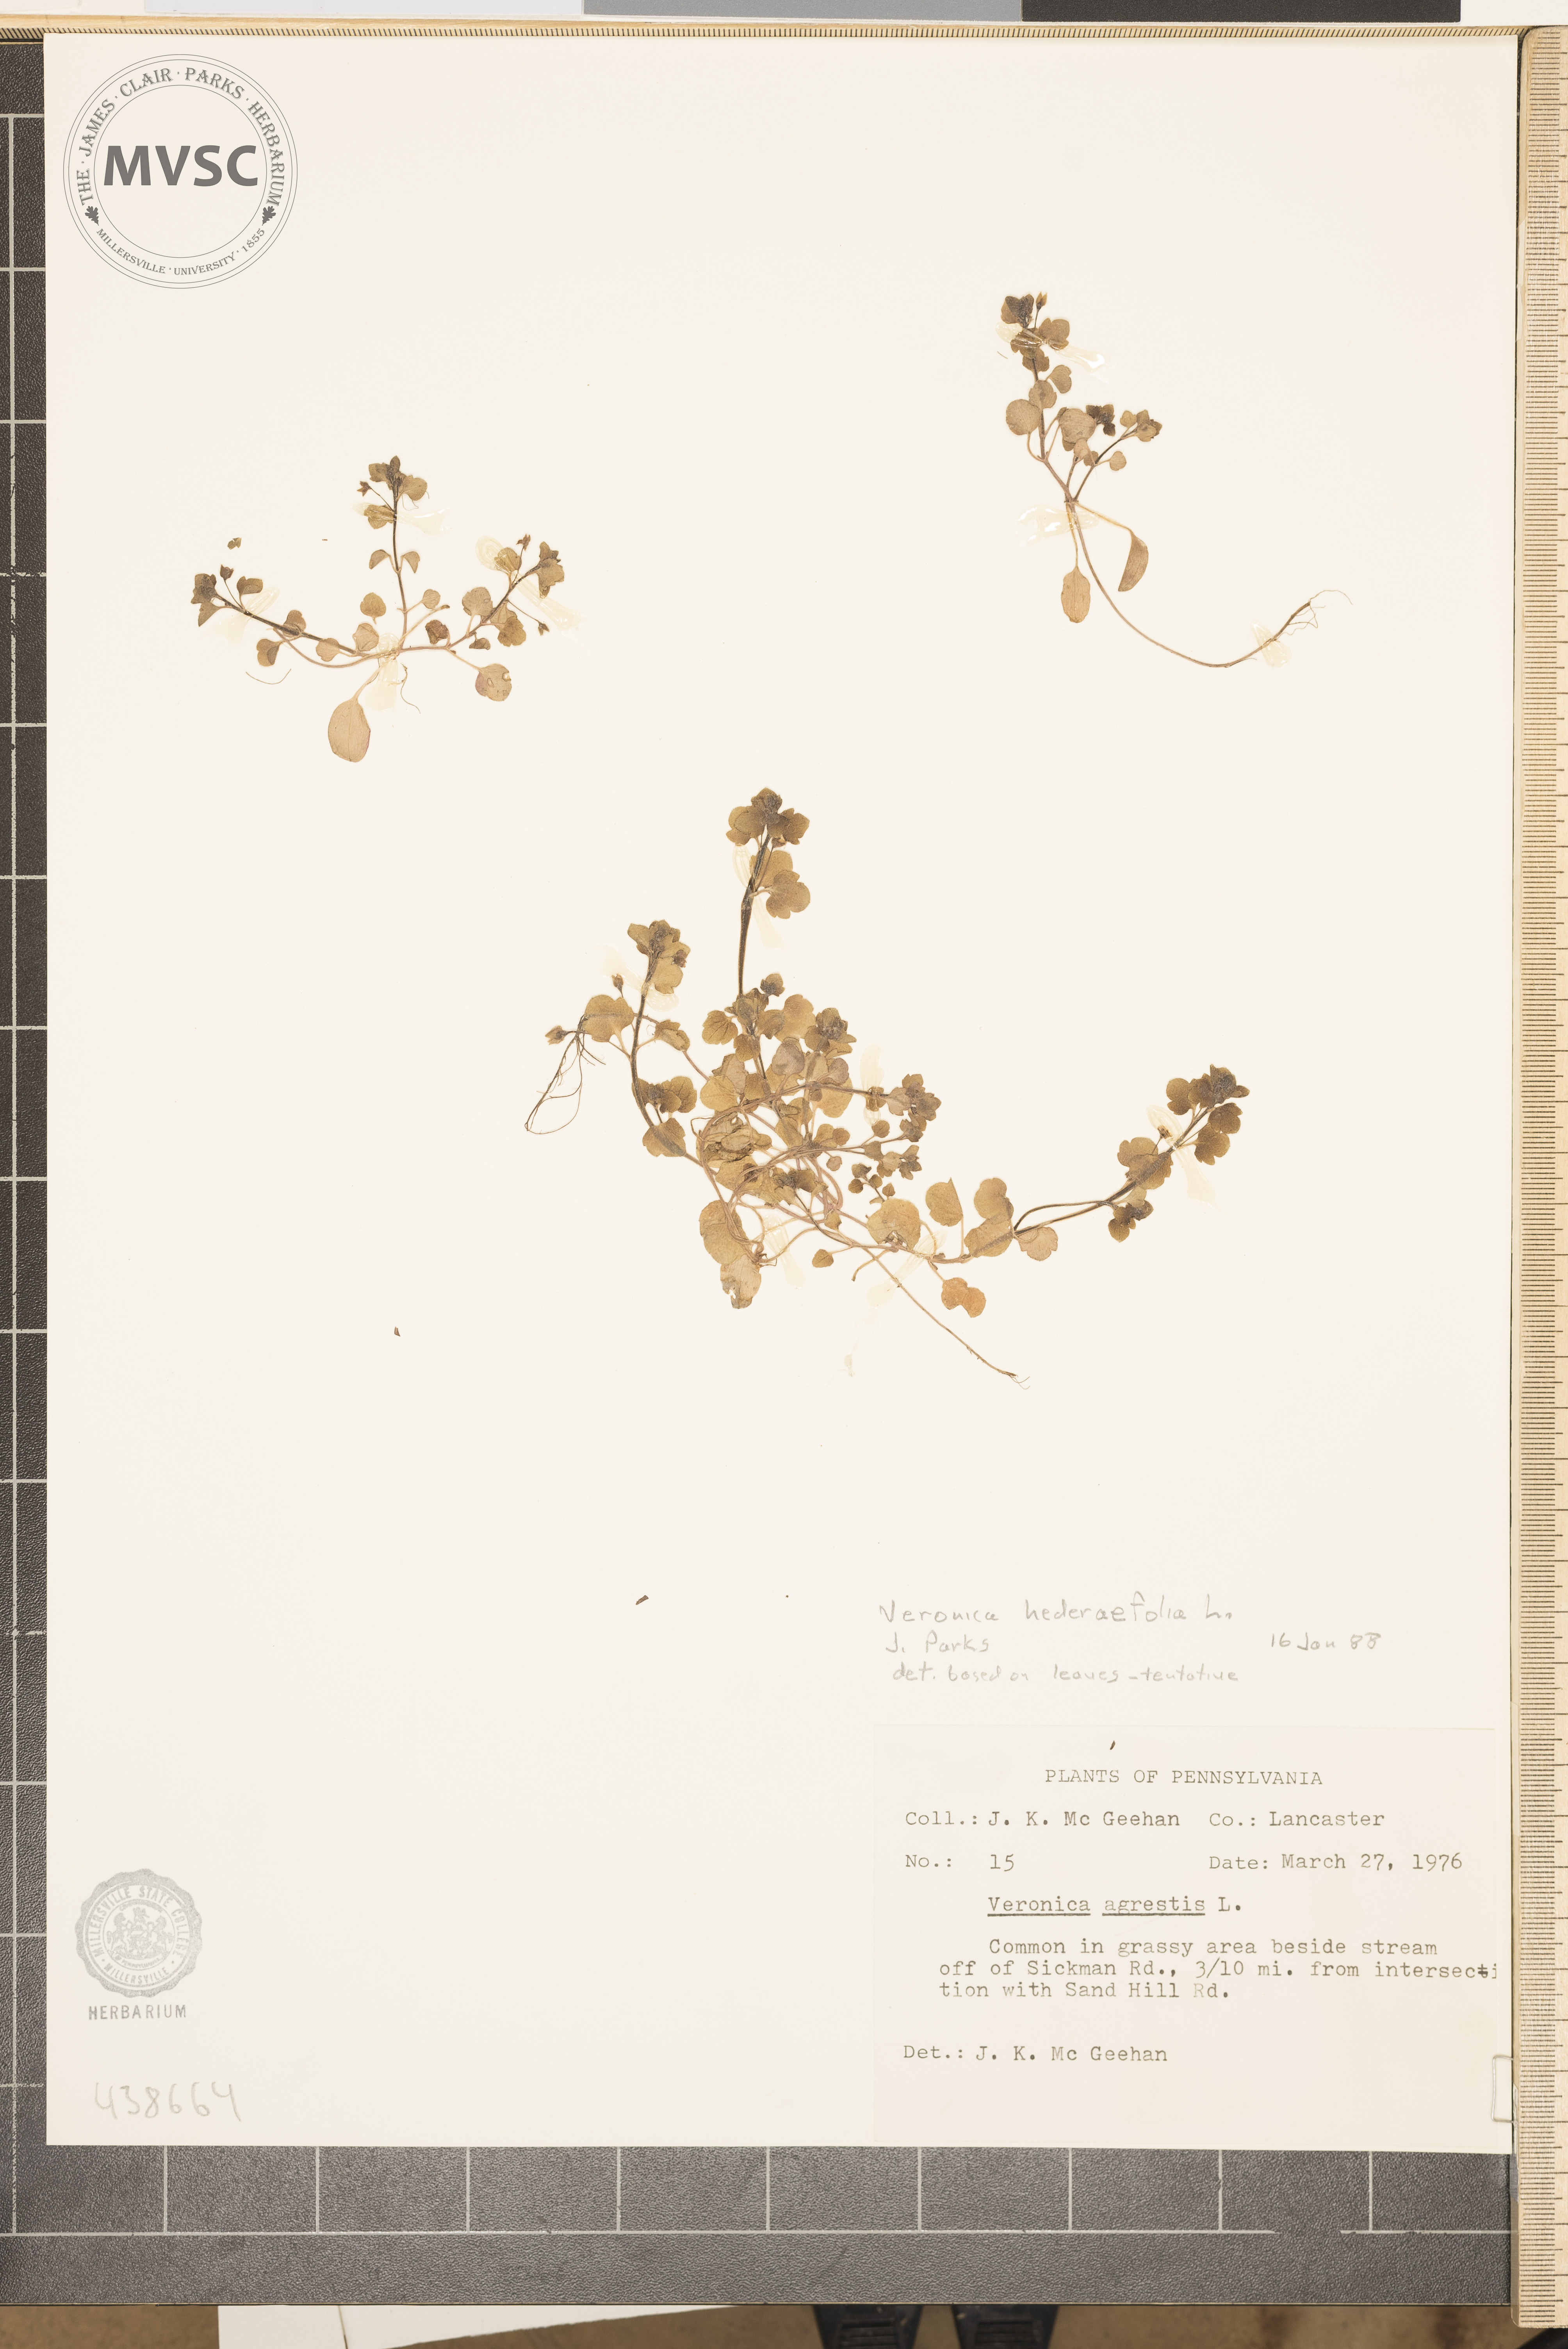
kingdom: Plantae
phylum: Tracheophyta
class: Magnoliopsida
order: Lamiales
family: Plantaginaceae
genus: Veronica
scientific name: Veronica hederifolia
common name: Ivy-leaved speedwell
